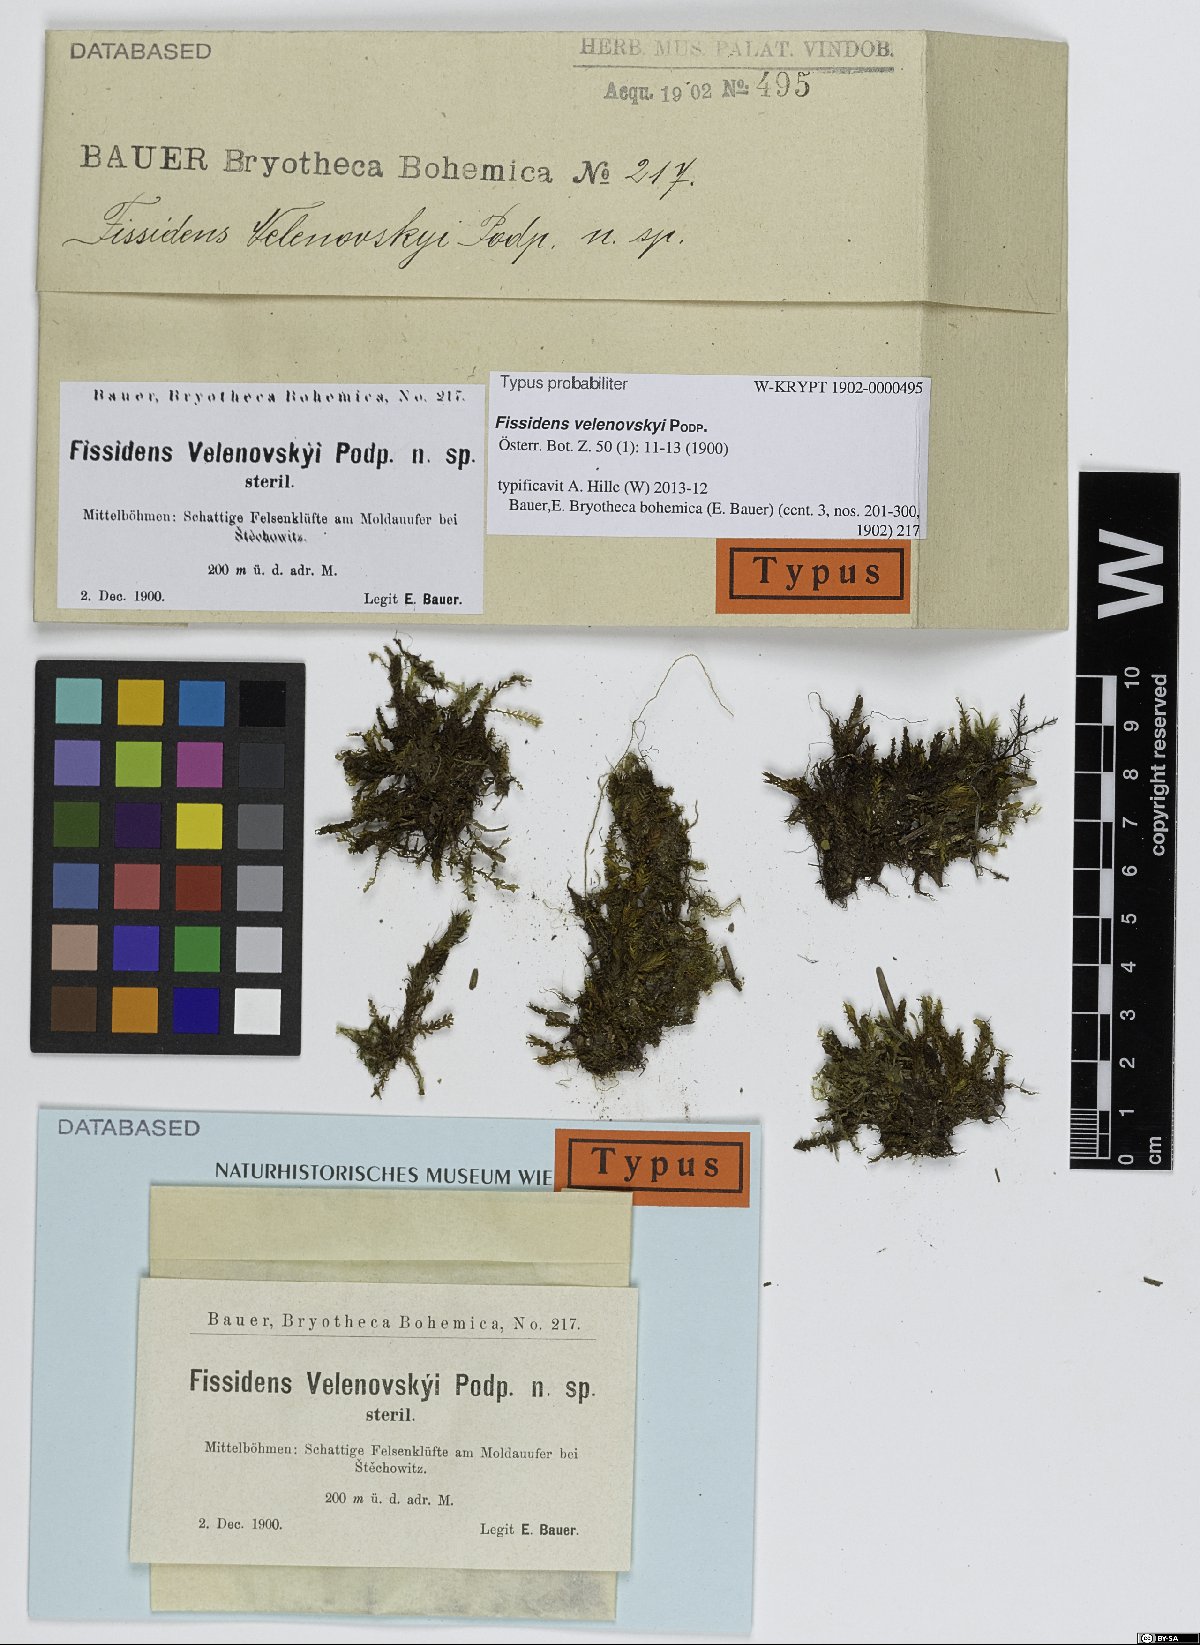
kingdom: Plantae
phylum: Bryophyta
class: Bryopsida
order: Dicranales
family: Fissidentaceae
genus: Fissidens
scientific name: Fissidens dubius
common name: Rock pocket moss
